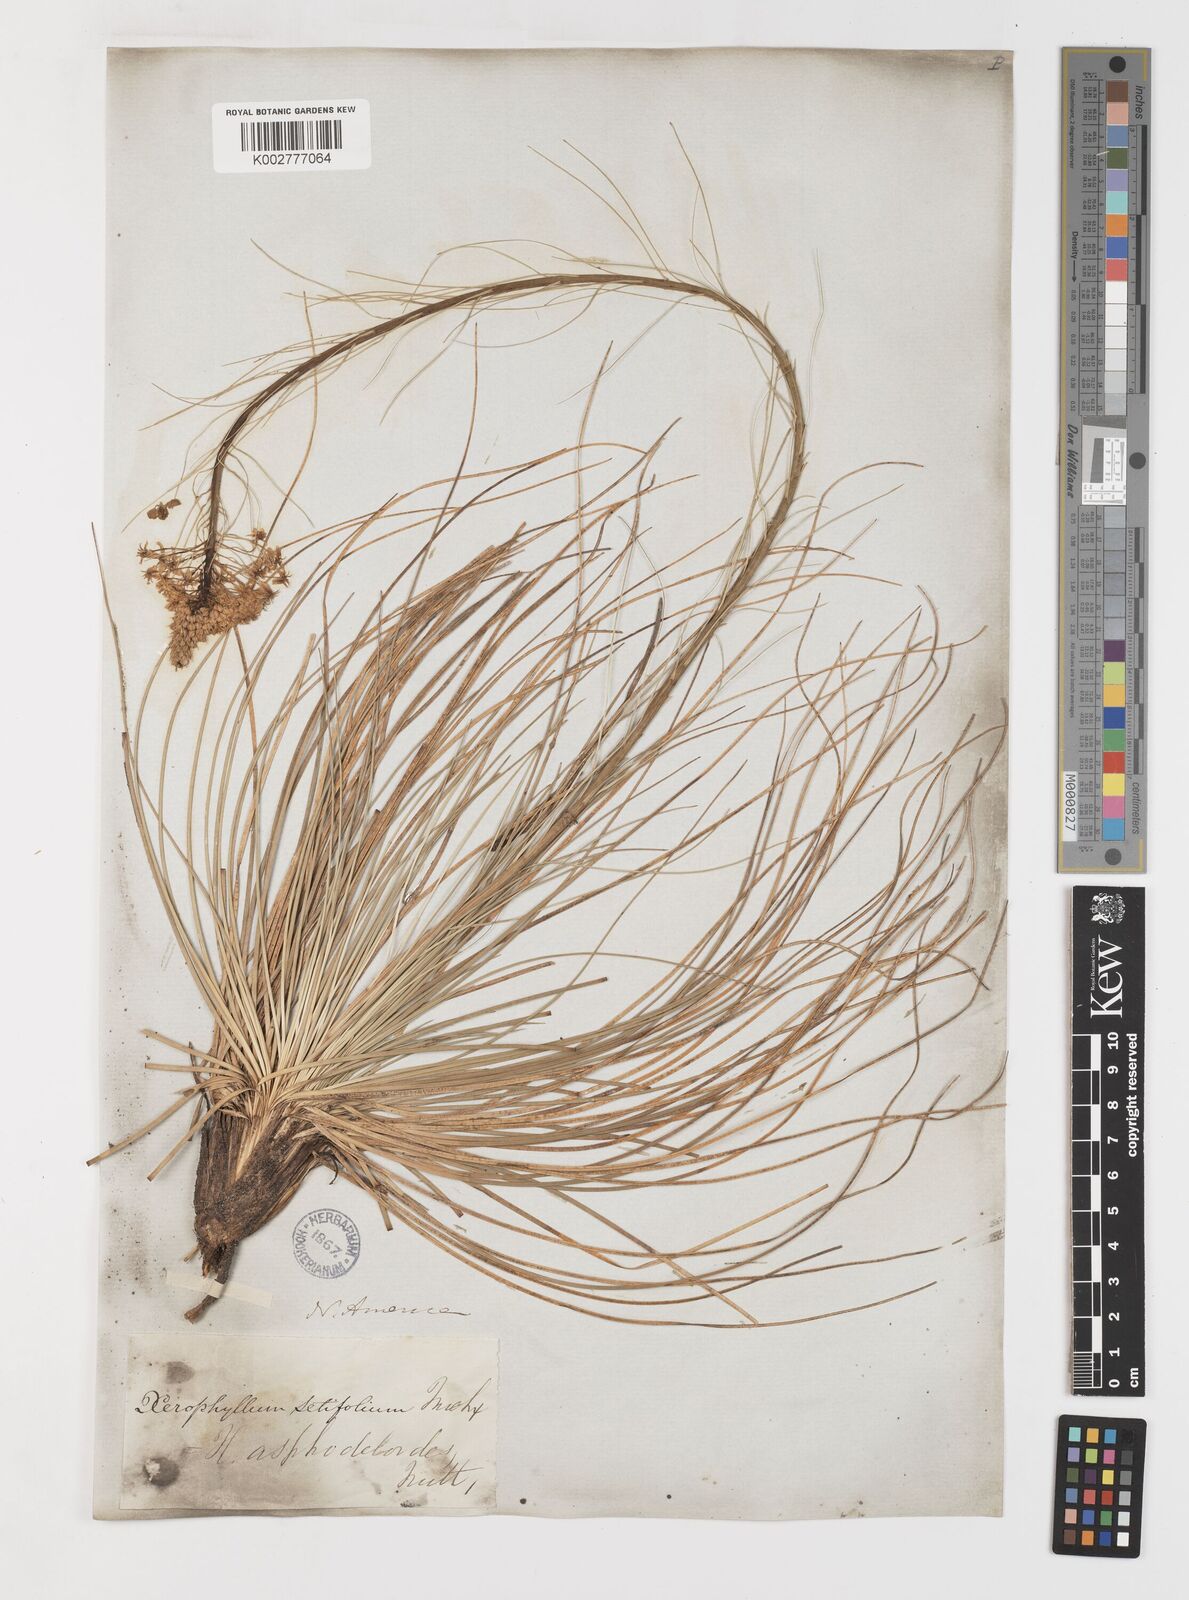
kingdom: Plantae
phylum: Tracheophyta
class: Liliopsida
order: Liliales
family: Melanthiaceae
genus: Xerophyllum
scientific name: Xerophyllum asphodeloides
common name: Mountain-asphodel
